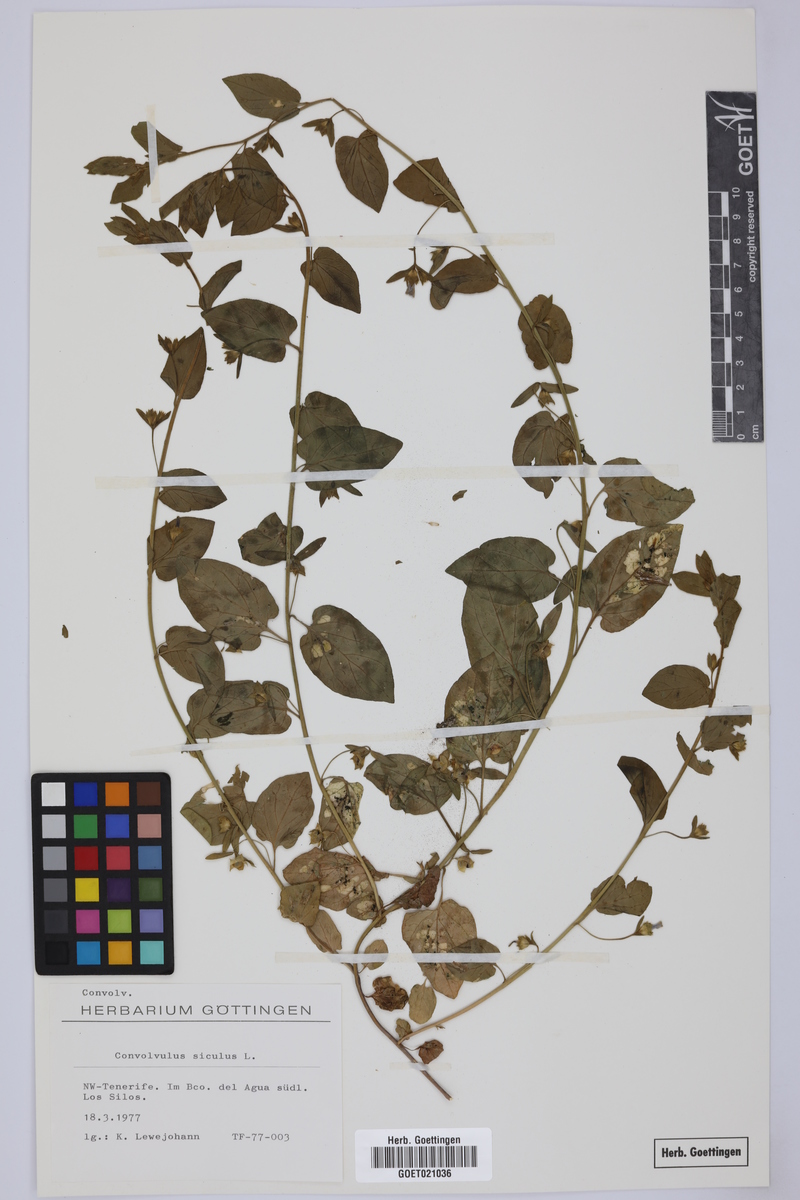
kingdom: Plantae
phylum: Tracheophyta
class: Magnoliopsida
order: Solanales
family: Convolvulaceae
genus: Convolvulus
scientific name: Convolvulus siculus
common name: Small blue-convolvulus
